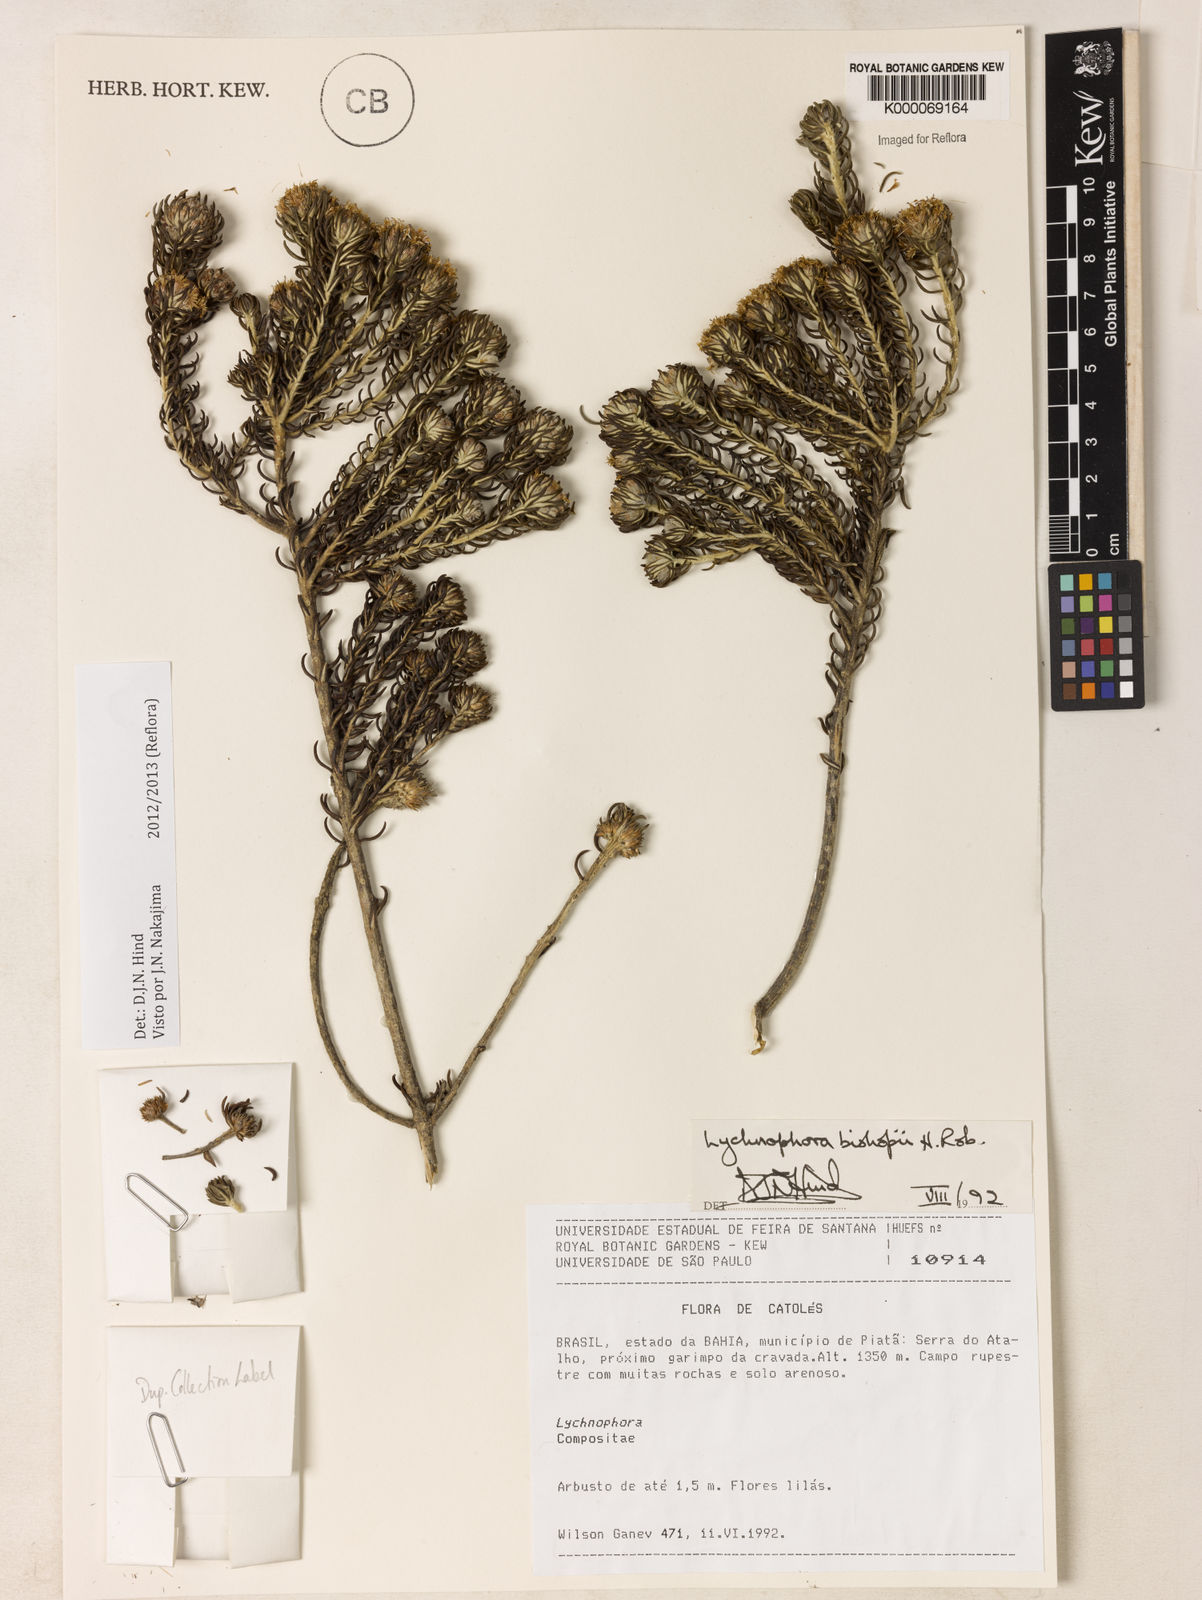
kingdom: Plantae
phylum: Tracheophyta
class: Magnoliopsida
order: Asterales
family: Asteraceae
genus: Lychnophorella
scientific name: Lychnophorella bishopii
